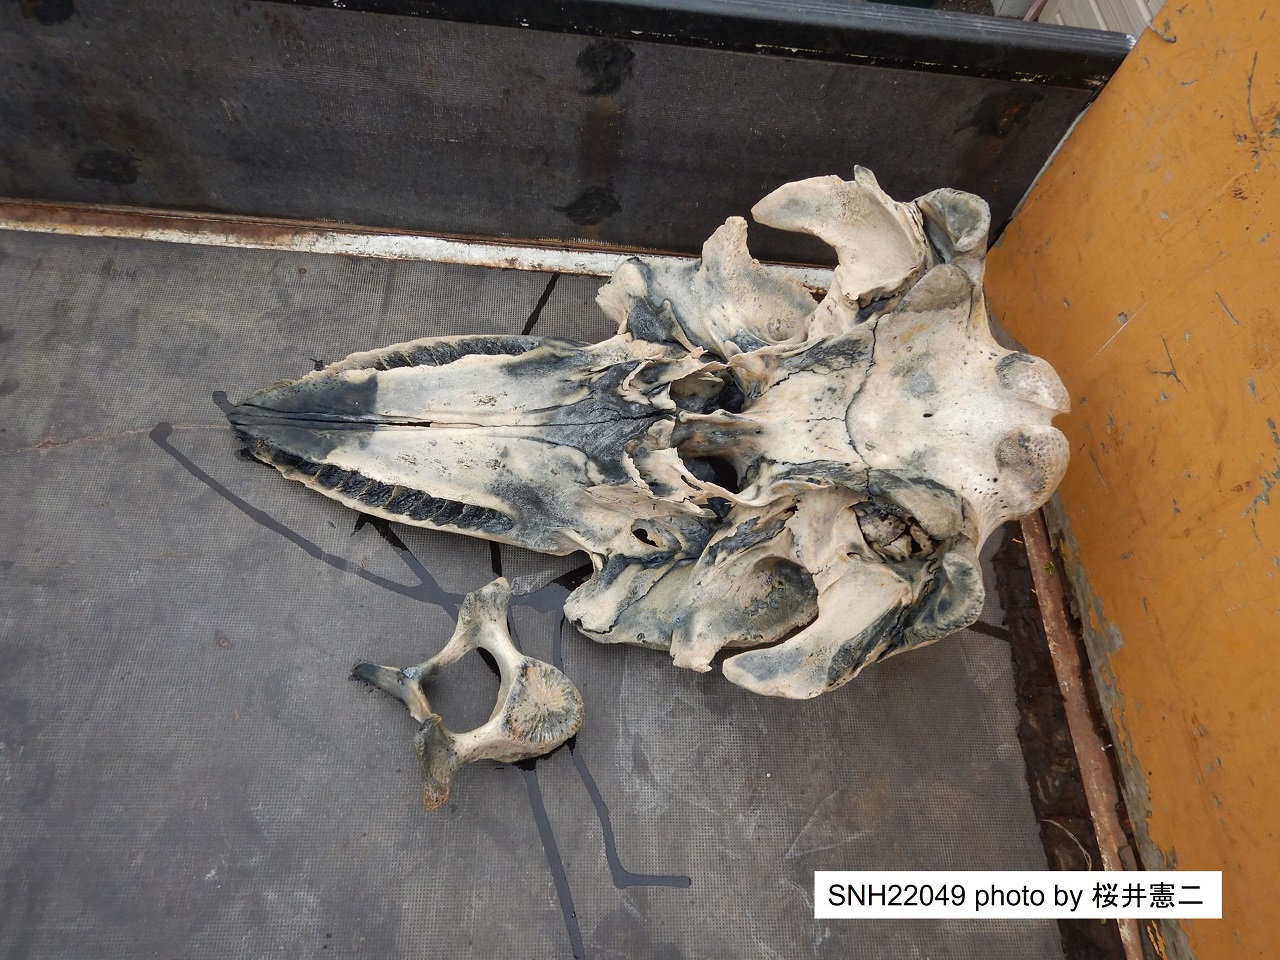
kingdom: Animalia
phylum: Chordata
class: Mammalia
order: Cetacea
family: Delphinidae
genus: Orcinus
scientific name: Orcinus orca
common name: Killer whale
